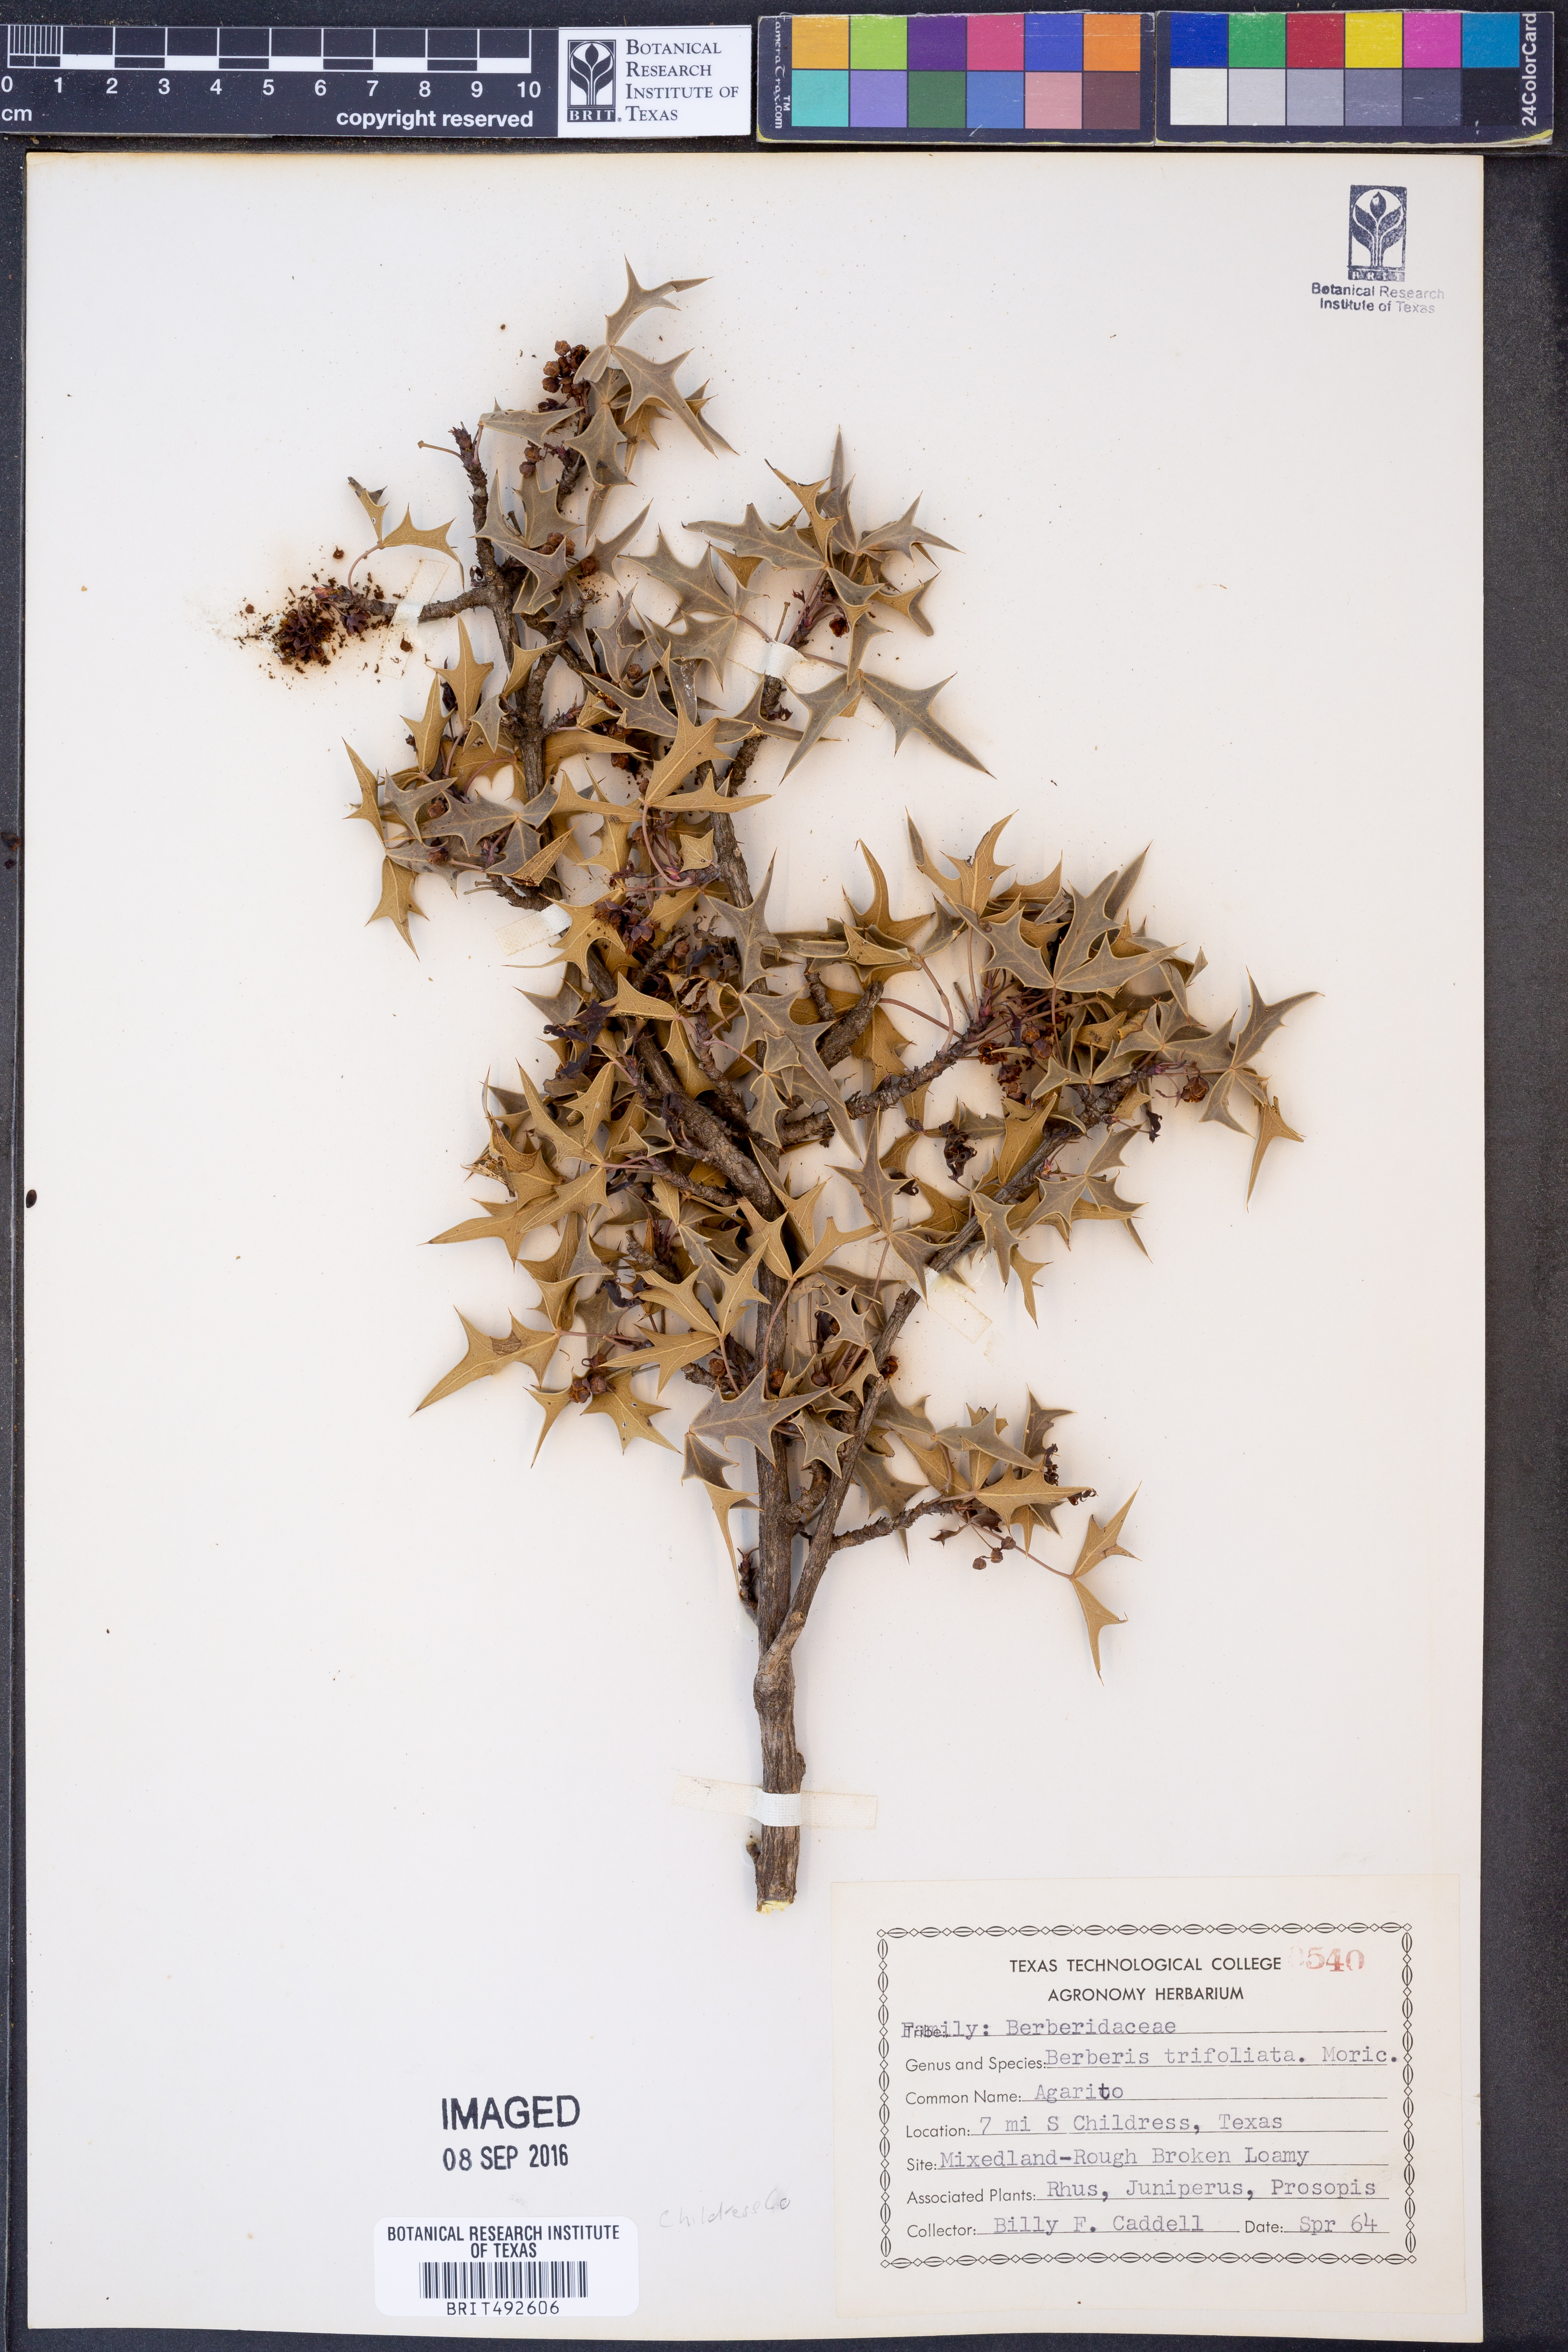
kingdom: Plantae
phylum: Tracheophyta
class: Magnoliopsida
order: Ranunculales
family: Berberidaceae
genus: Alloberberis
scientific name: Alloberberis fremontii
